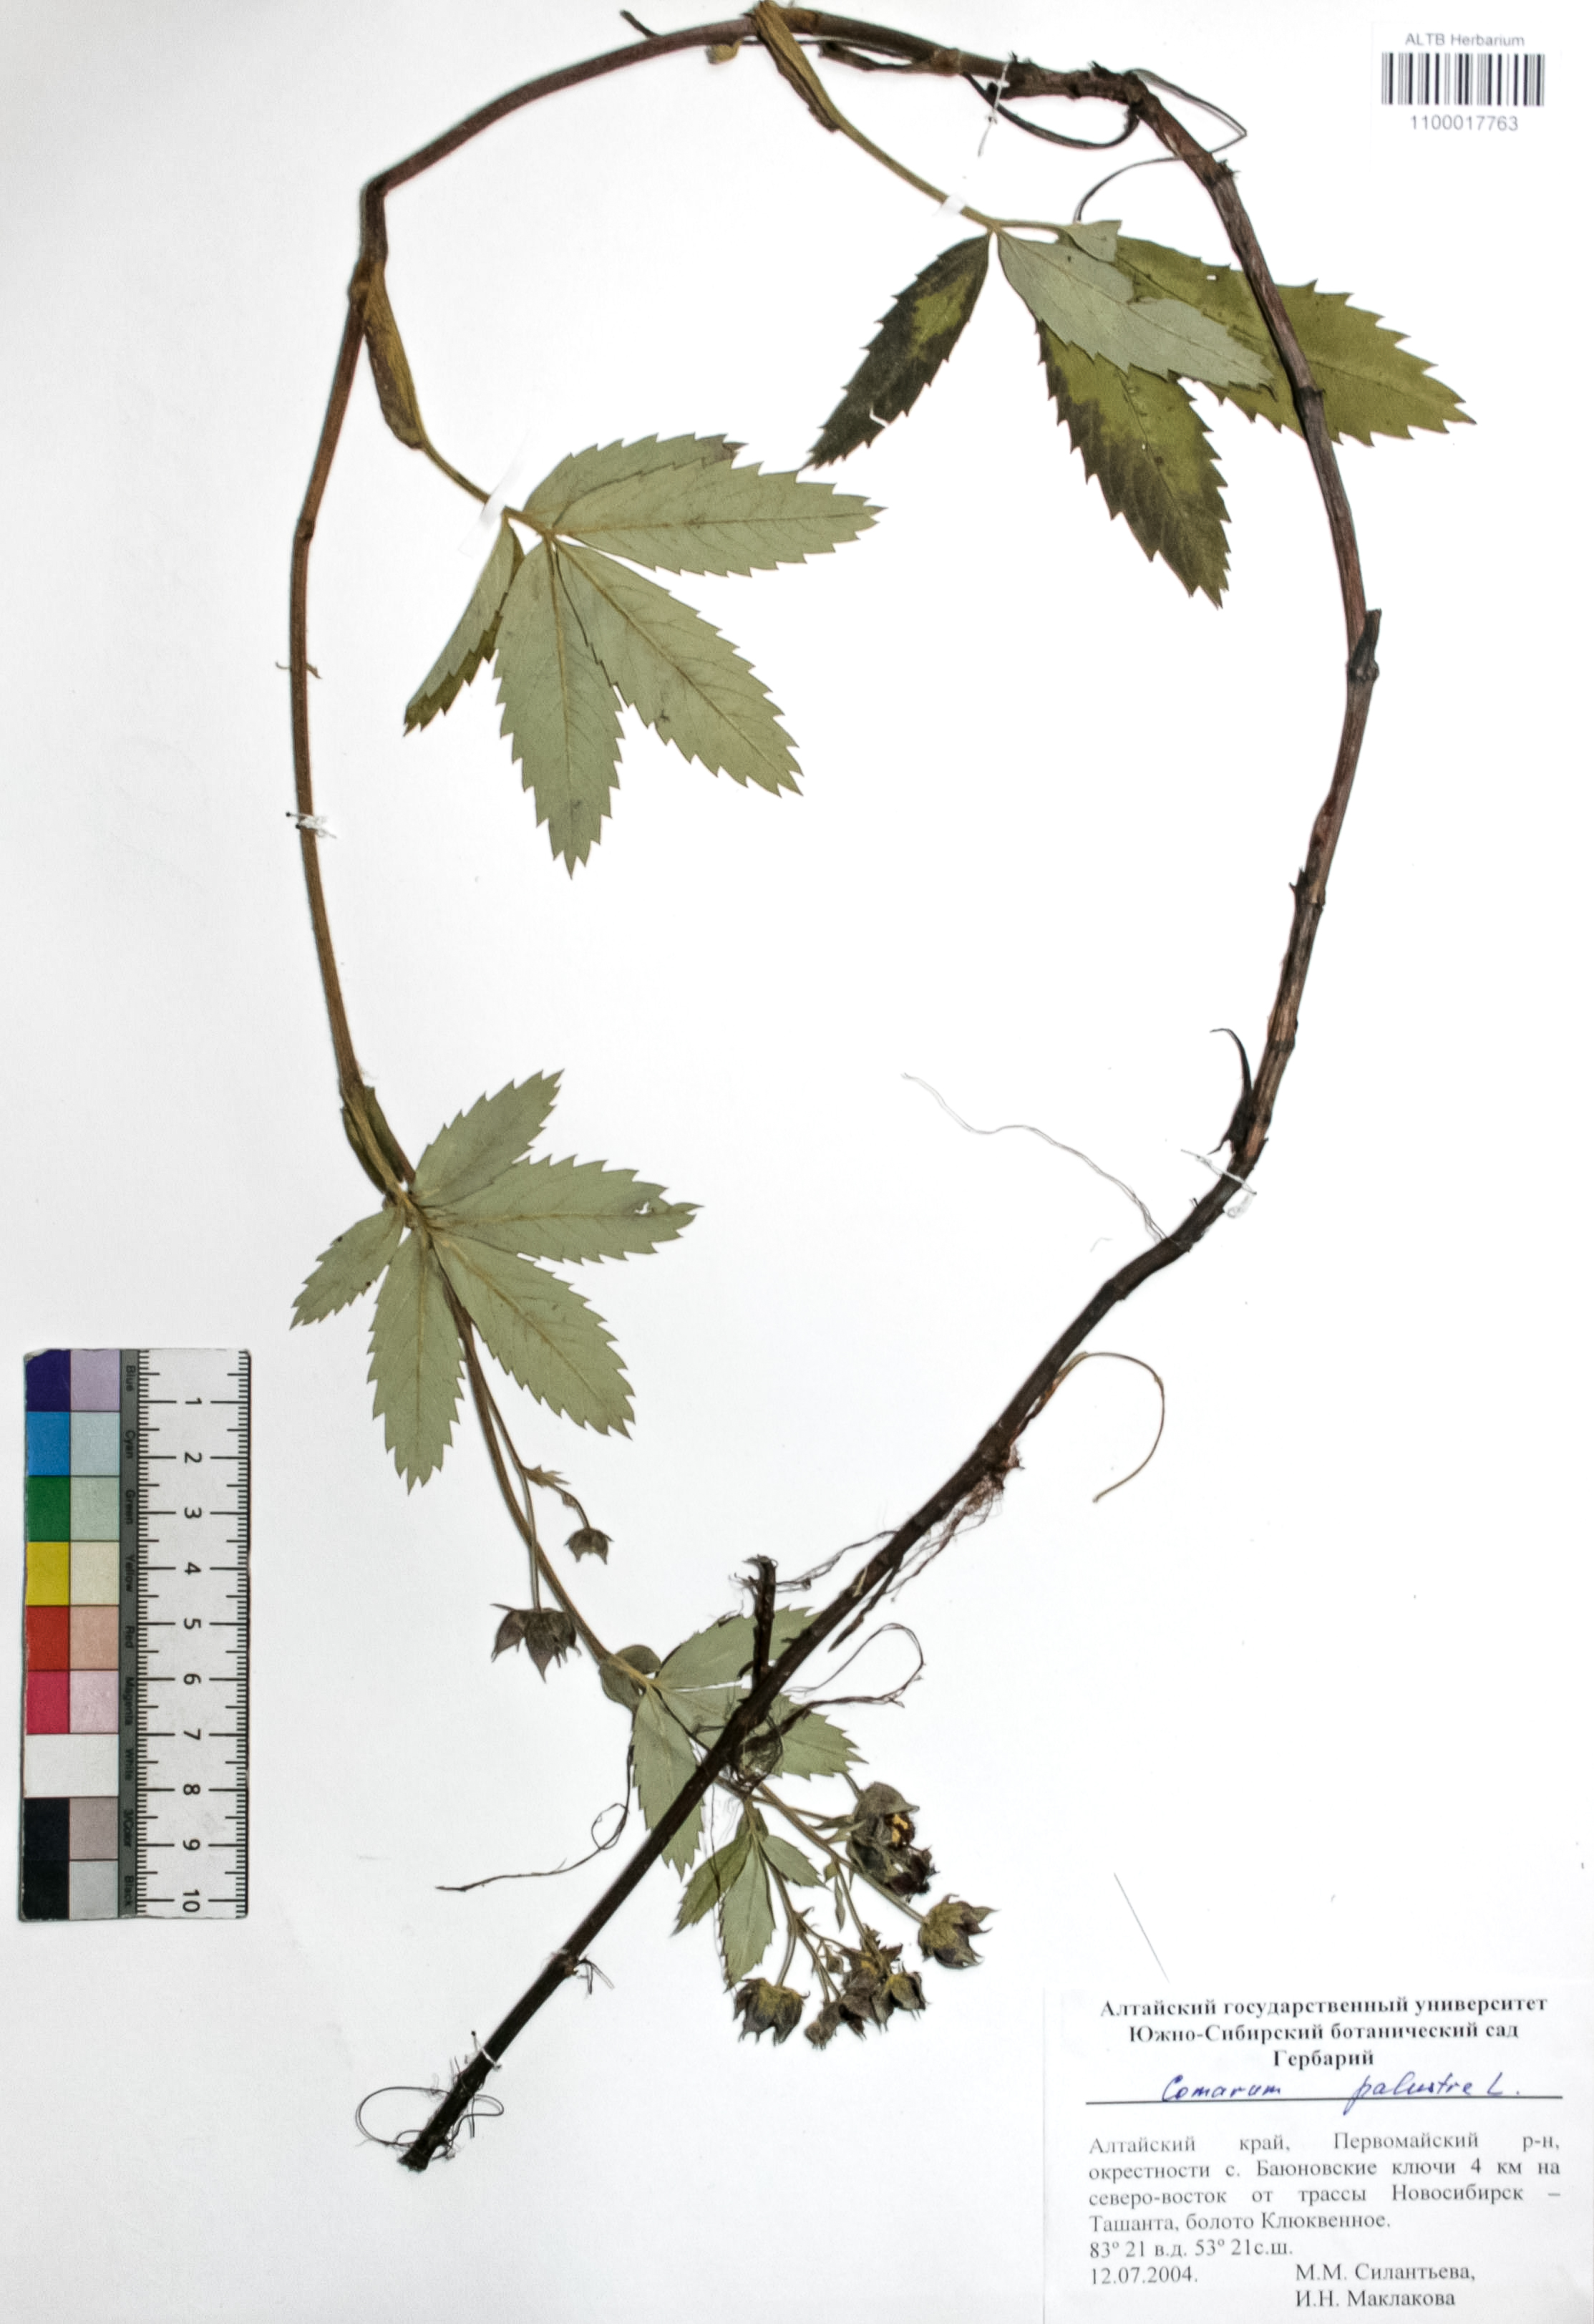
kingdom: Plantae
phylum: Tracheophyta
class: Magnoliopsida
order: Rosales
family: Rosaceae
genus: Comarum
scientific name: Comarum palustre
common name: Marsh cinquefoil
